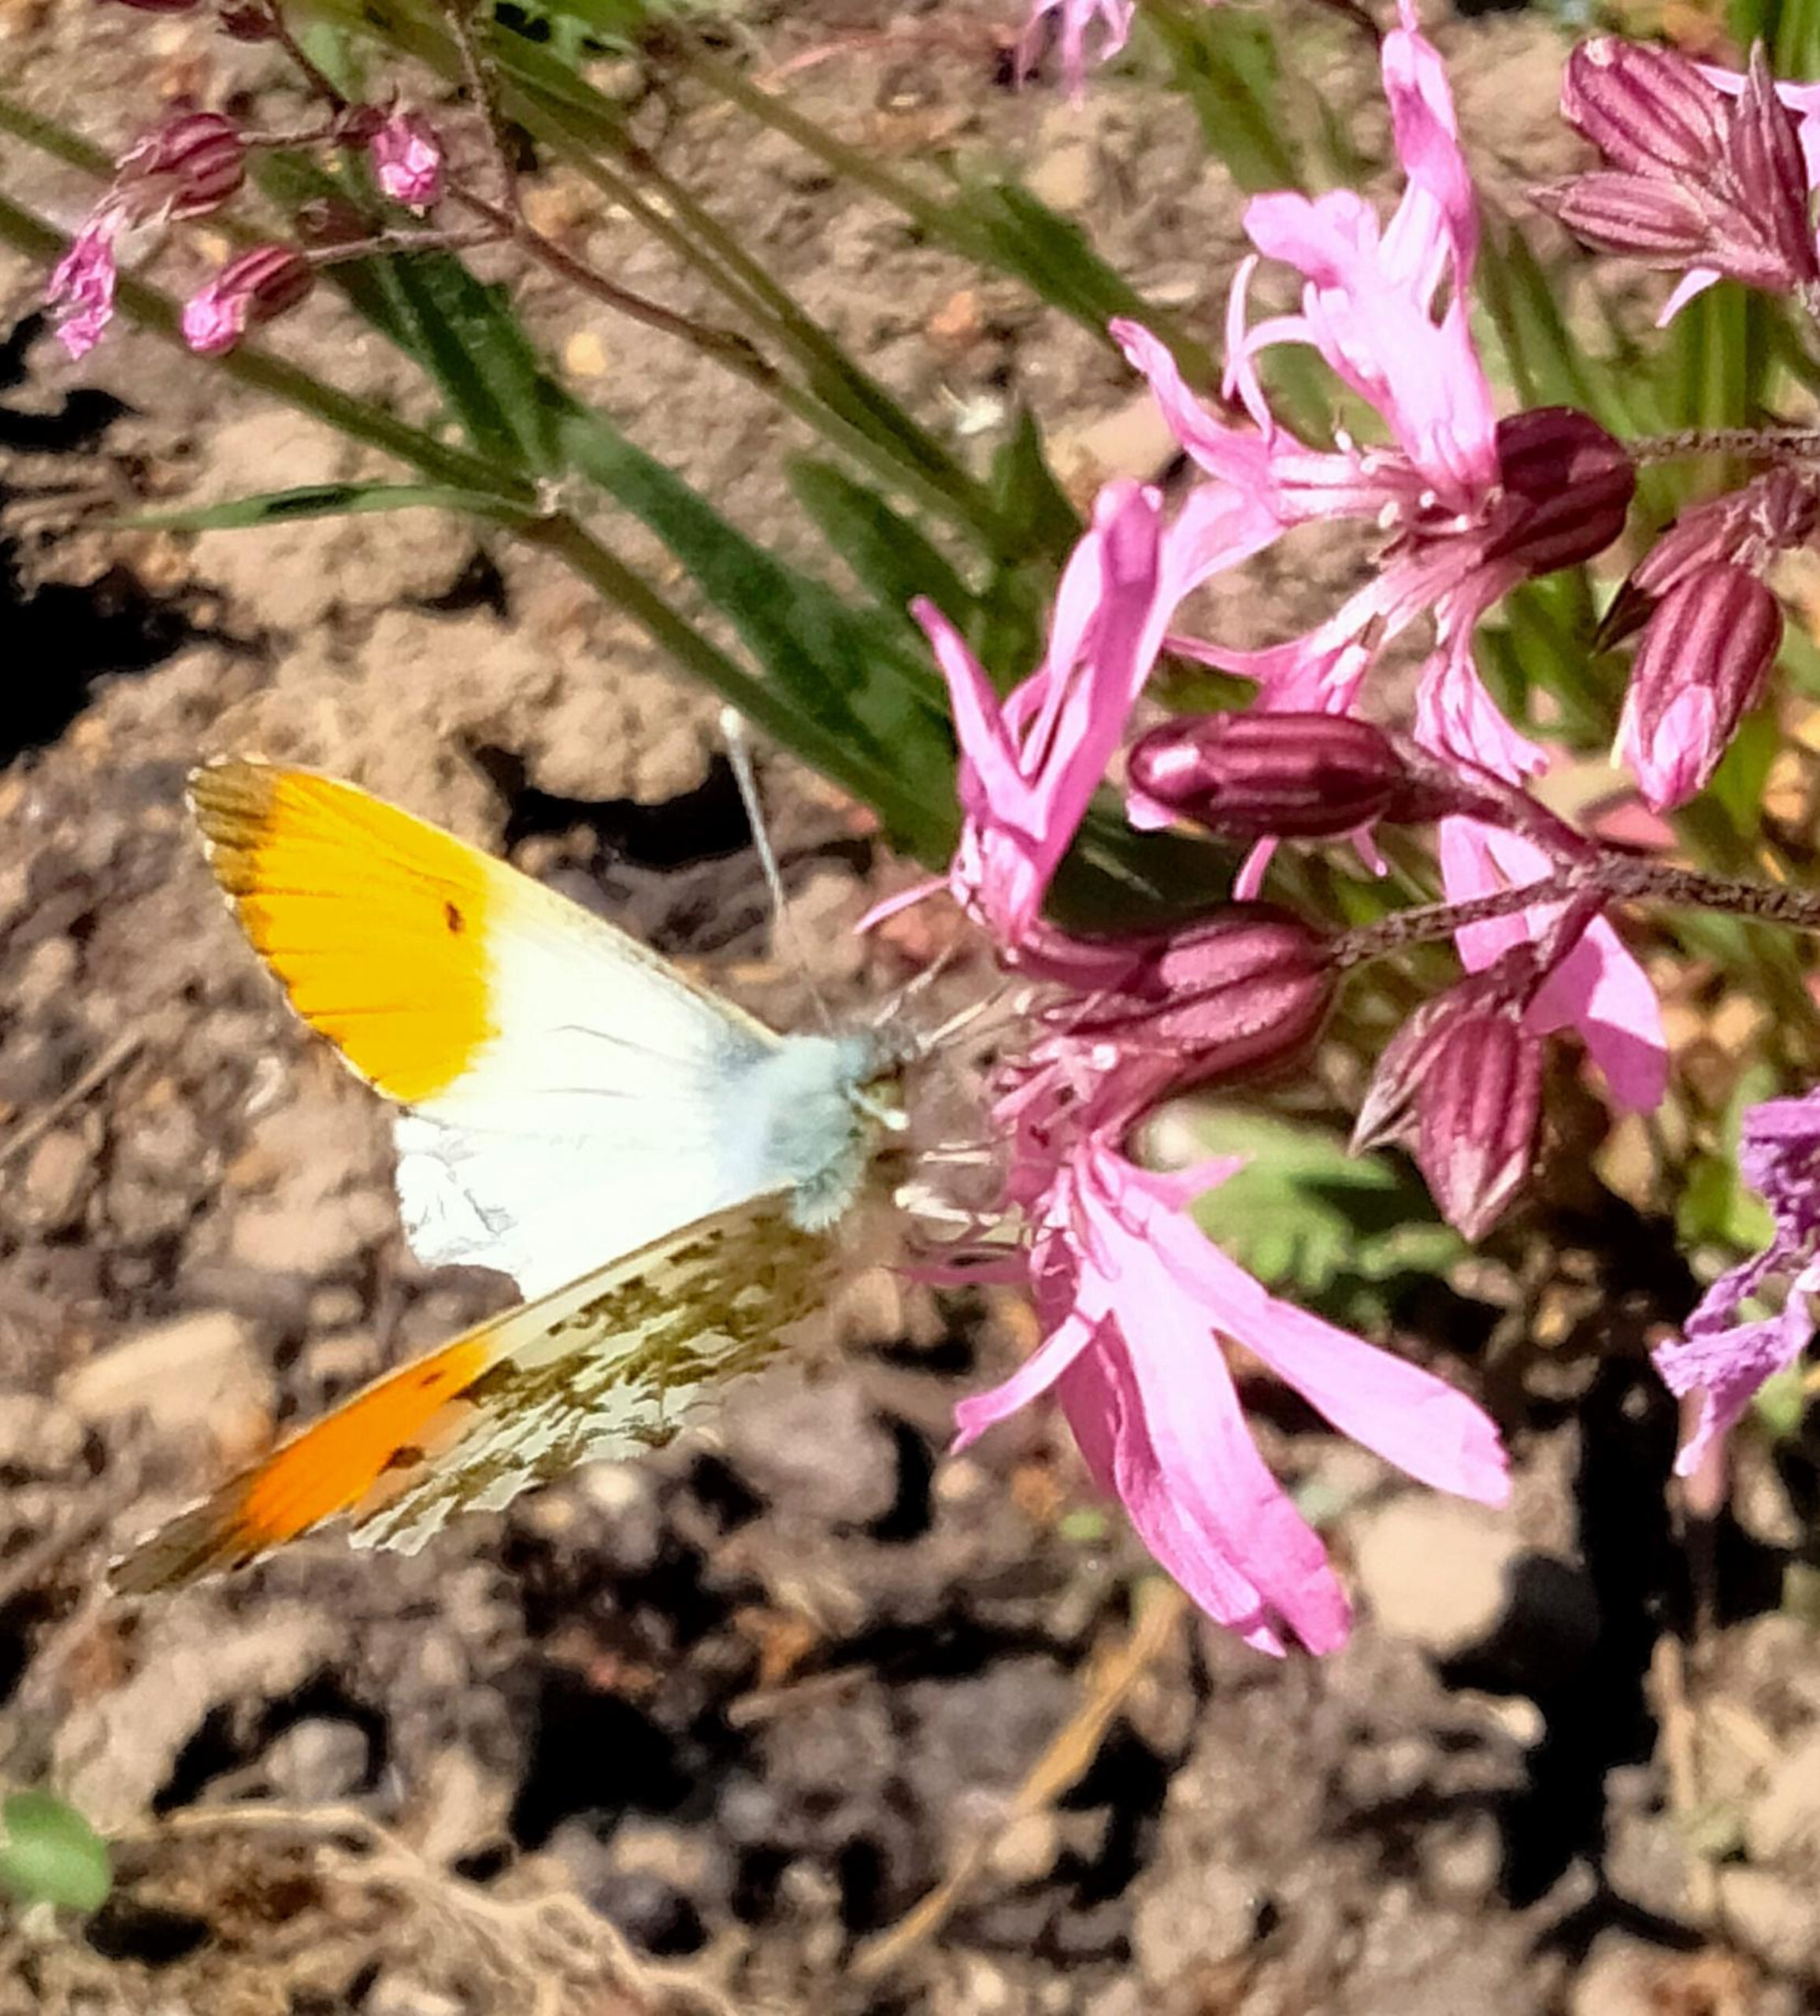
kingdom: Animalia
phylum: Arthropoda
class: Insecta
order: Lepidoptera
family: Pieridae
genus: Anthocharis
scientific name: Anthocharis cardamines
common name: Aurora
